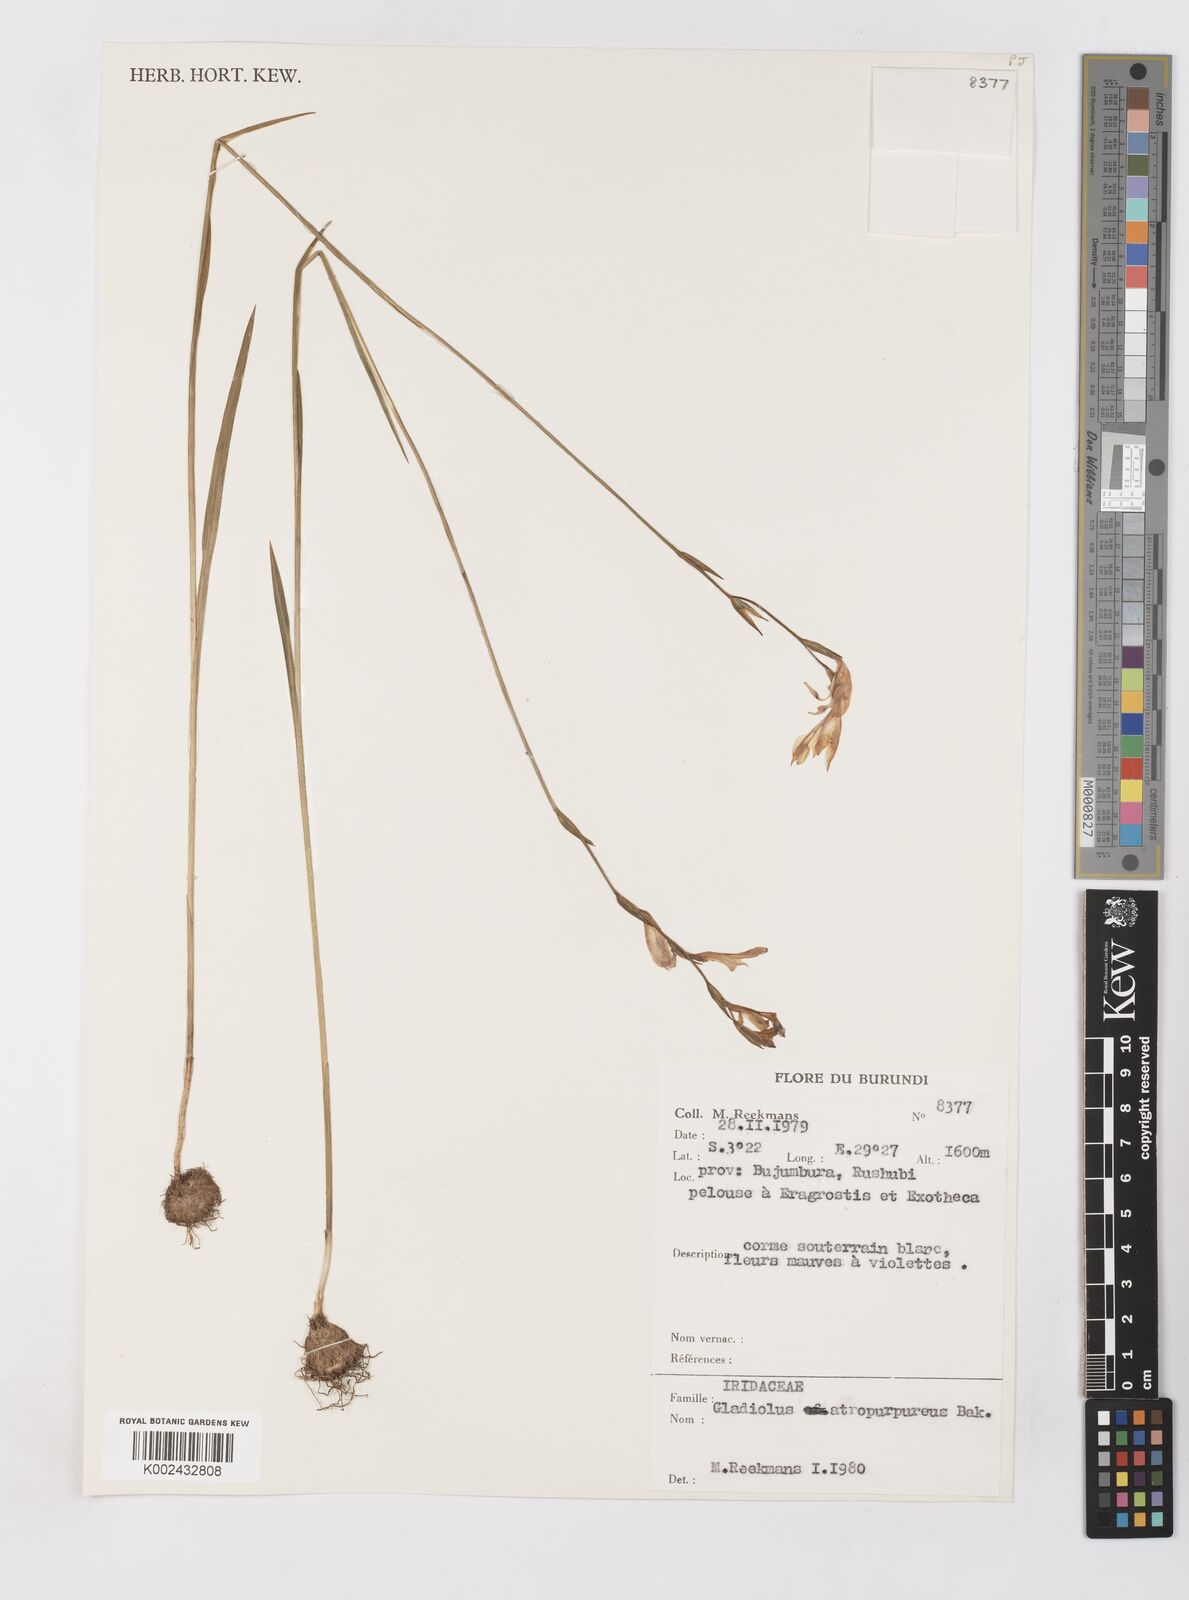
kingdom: Plantae
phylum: Tracheophyta
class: Liliopsida
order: Asparagales
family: Iridaceae
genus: Gladiolus
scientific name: Gladiolus atropurpureus
